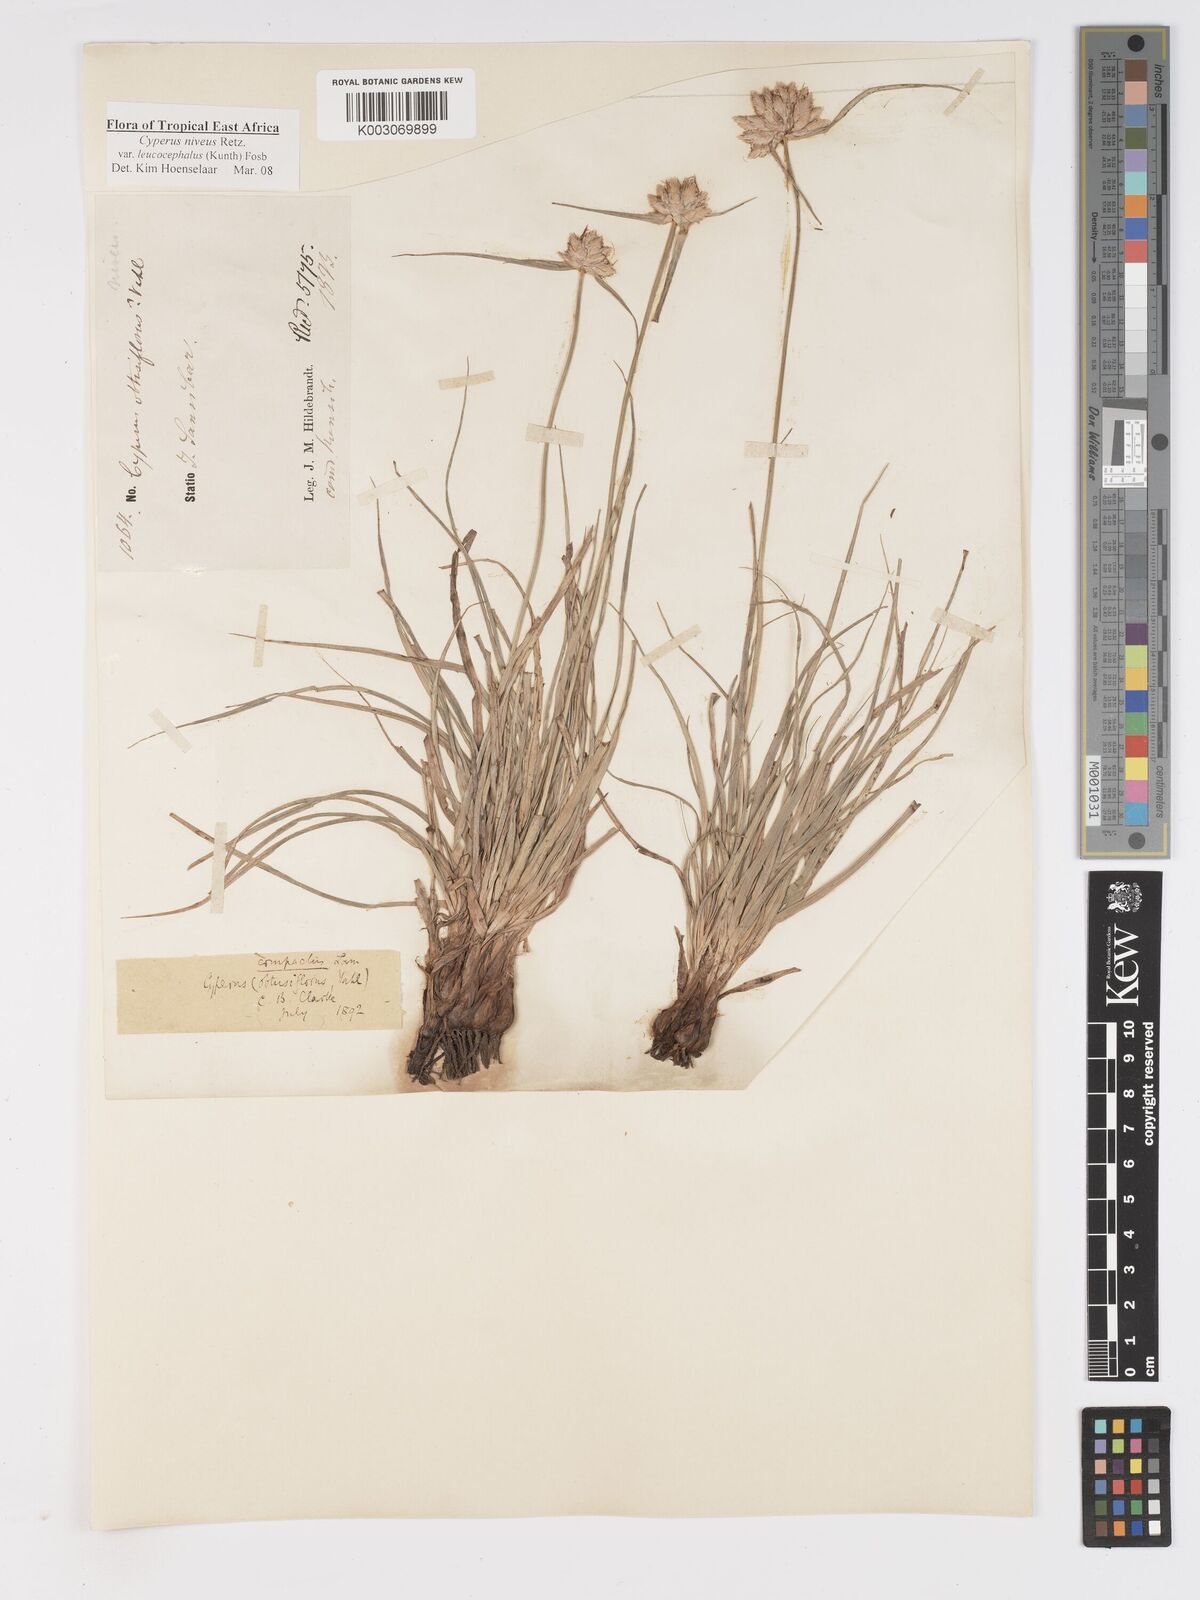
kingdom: Plantae
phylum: Tracheophyta
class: Liliopsida
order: Poales
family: Cyperaceae
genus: Cyperus
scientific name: Cyperus niveus
